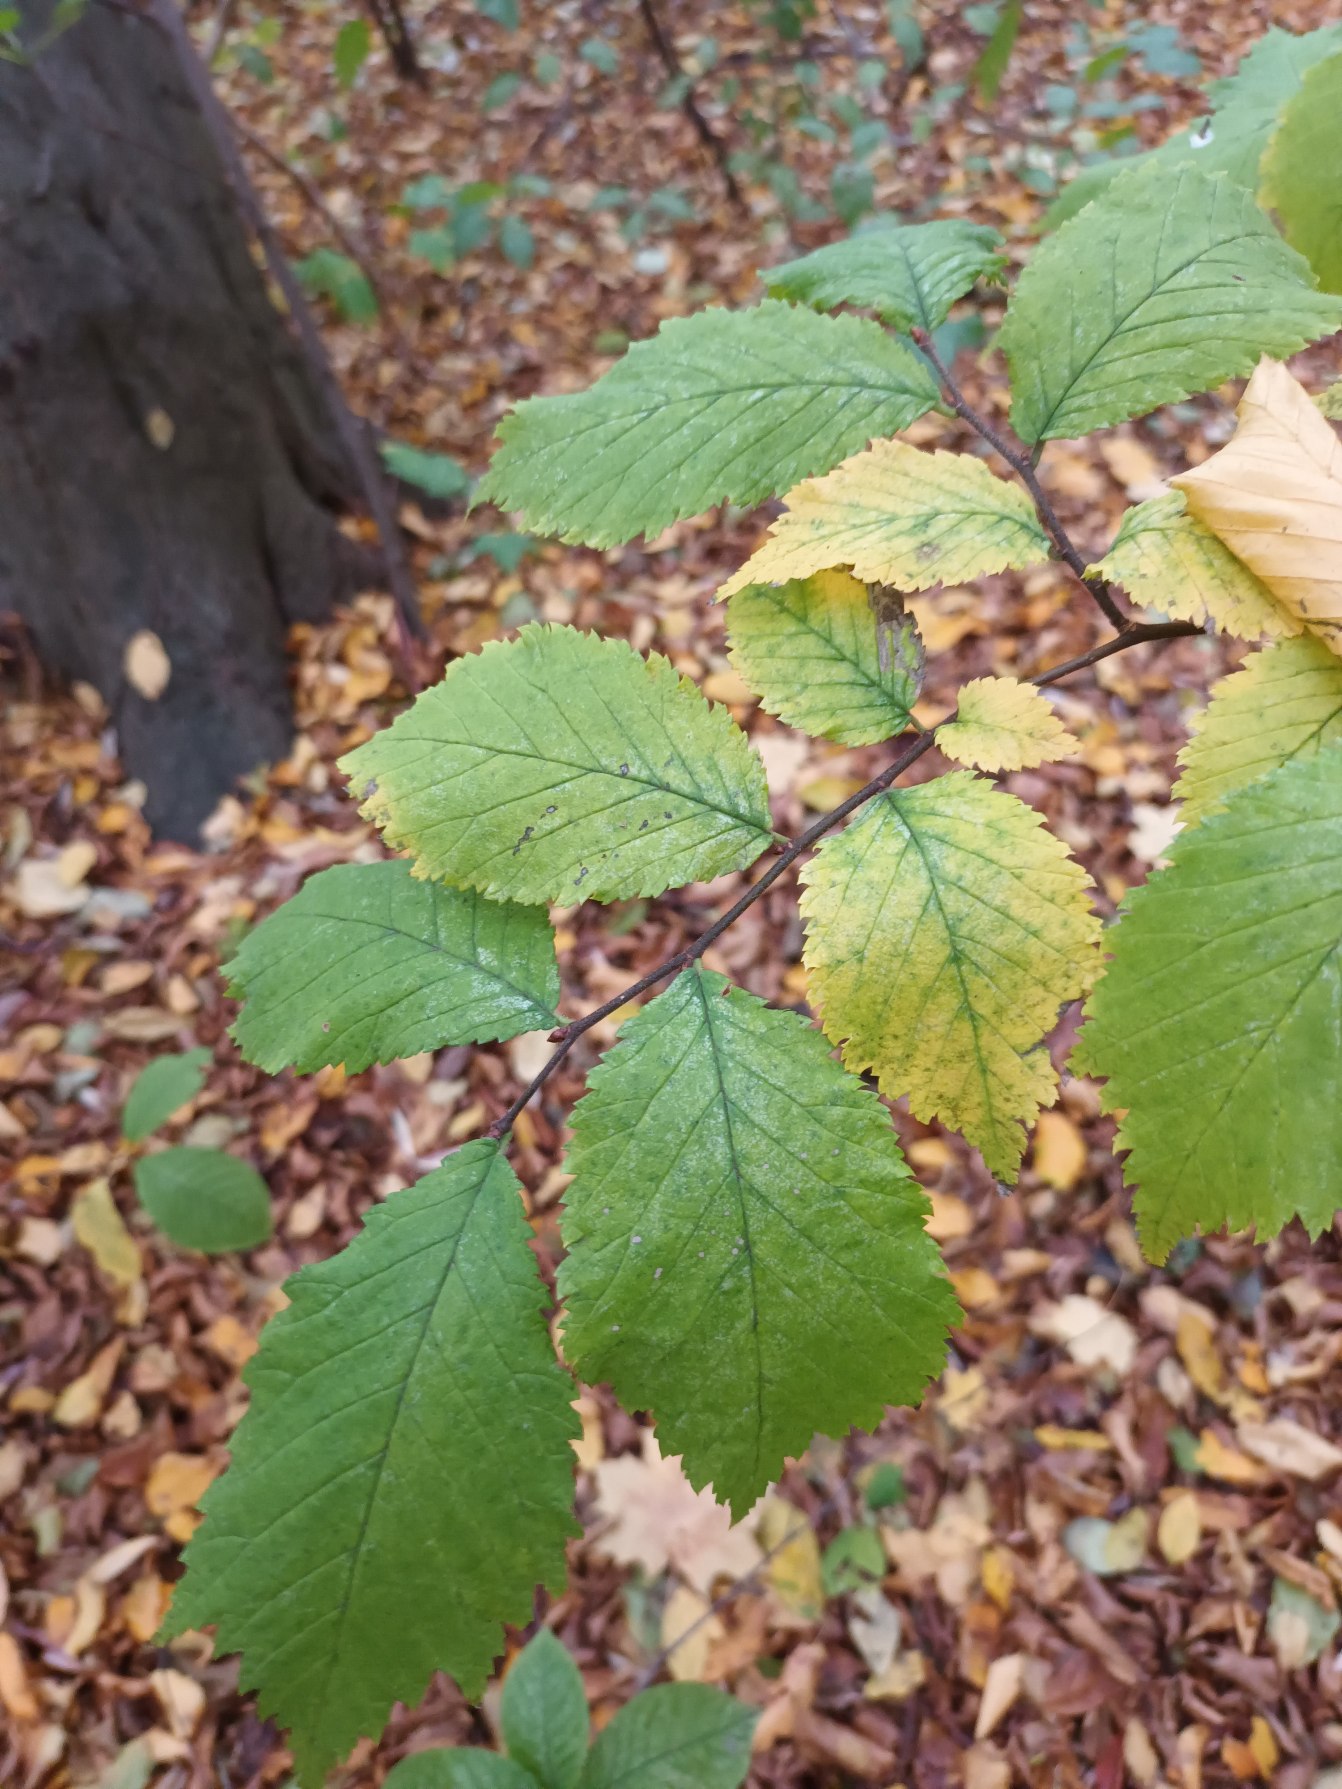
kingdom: Plantae
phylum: Tracheophyta
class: Magnoliopsida
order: Rosales
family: Ulmaceae
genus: Ulmus
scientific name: Ulmus glabra
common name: Skov-elm/storbladet elm
